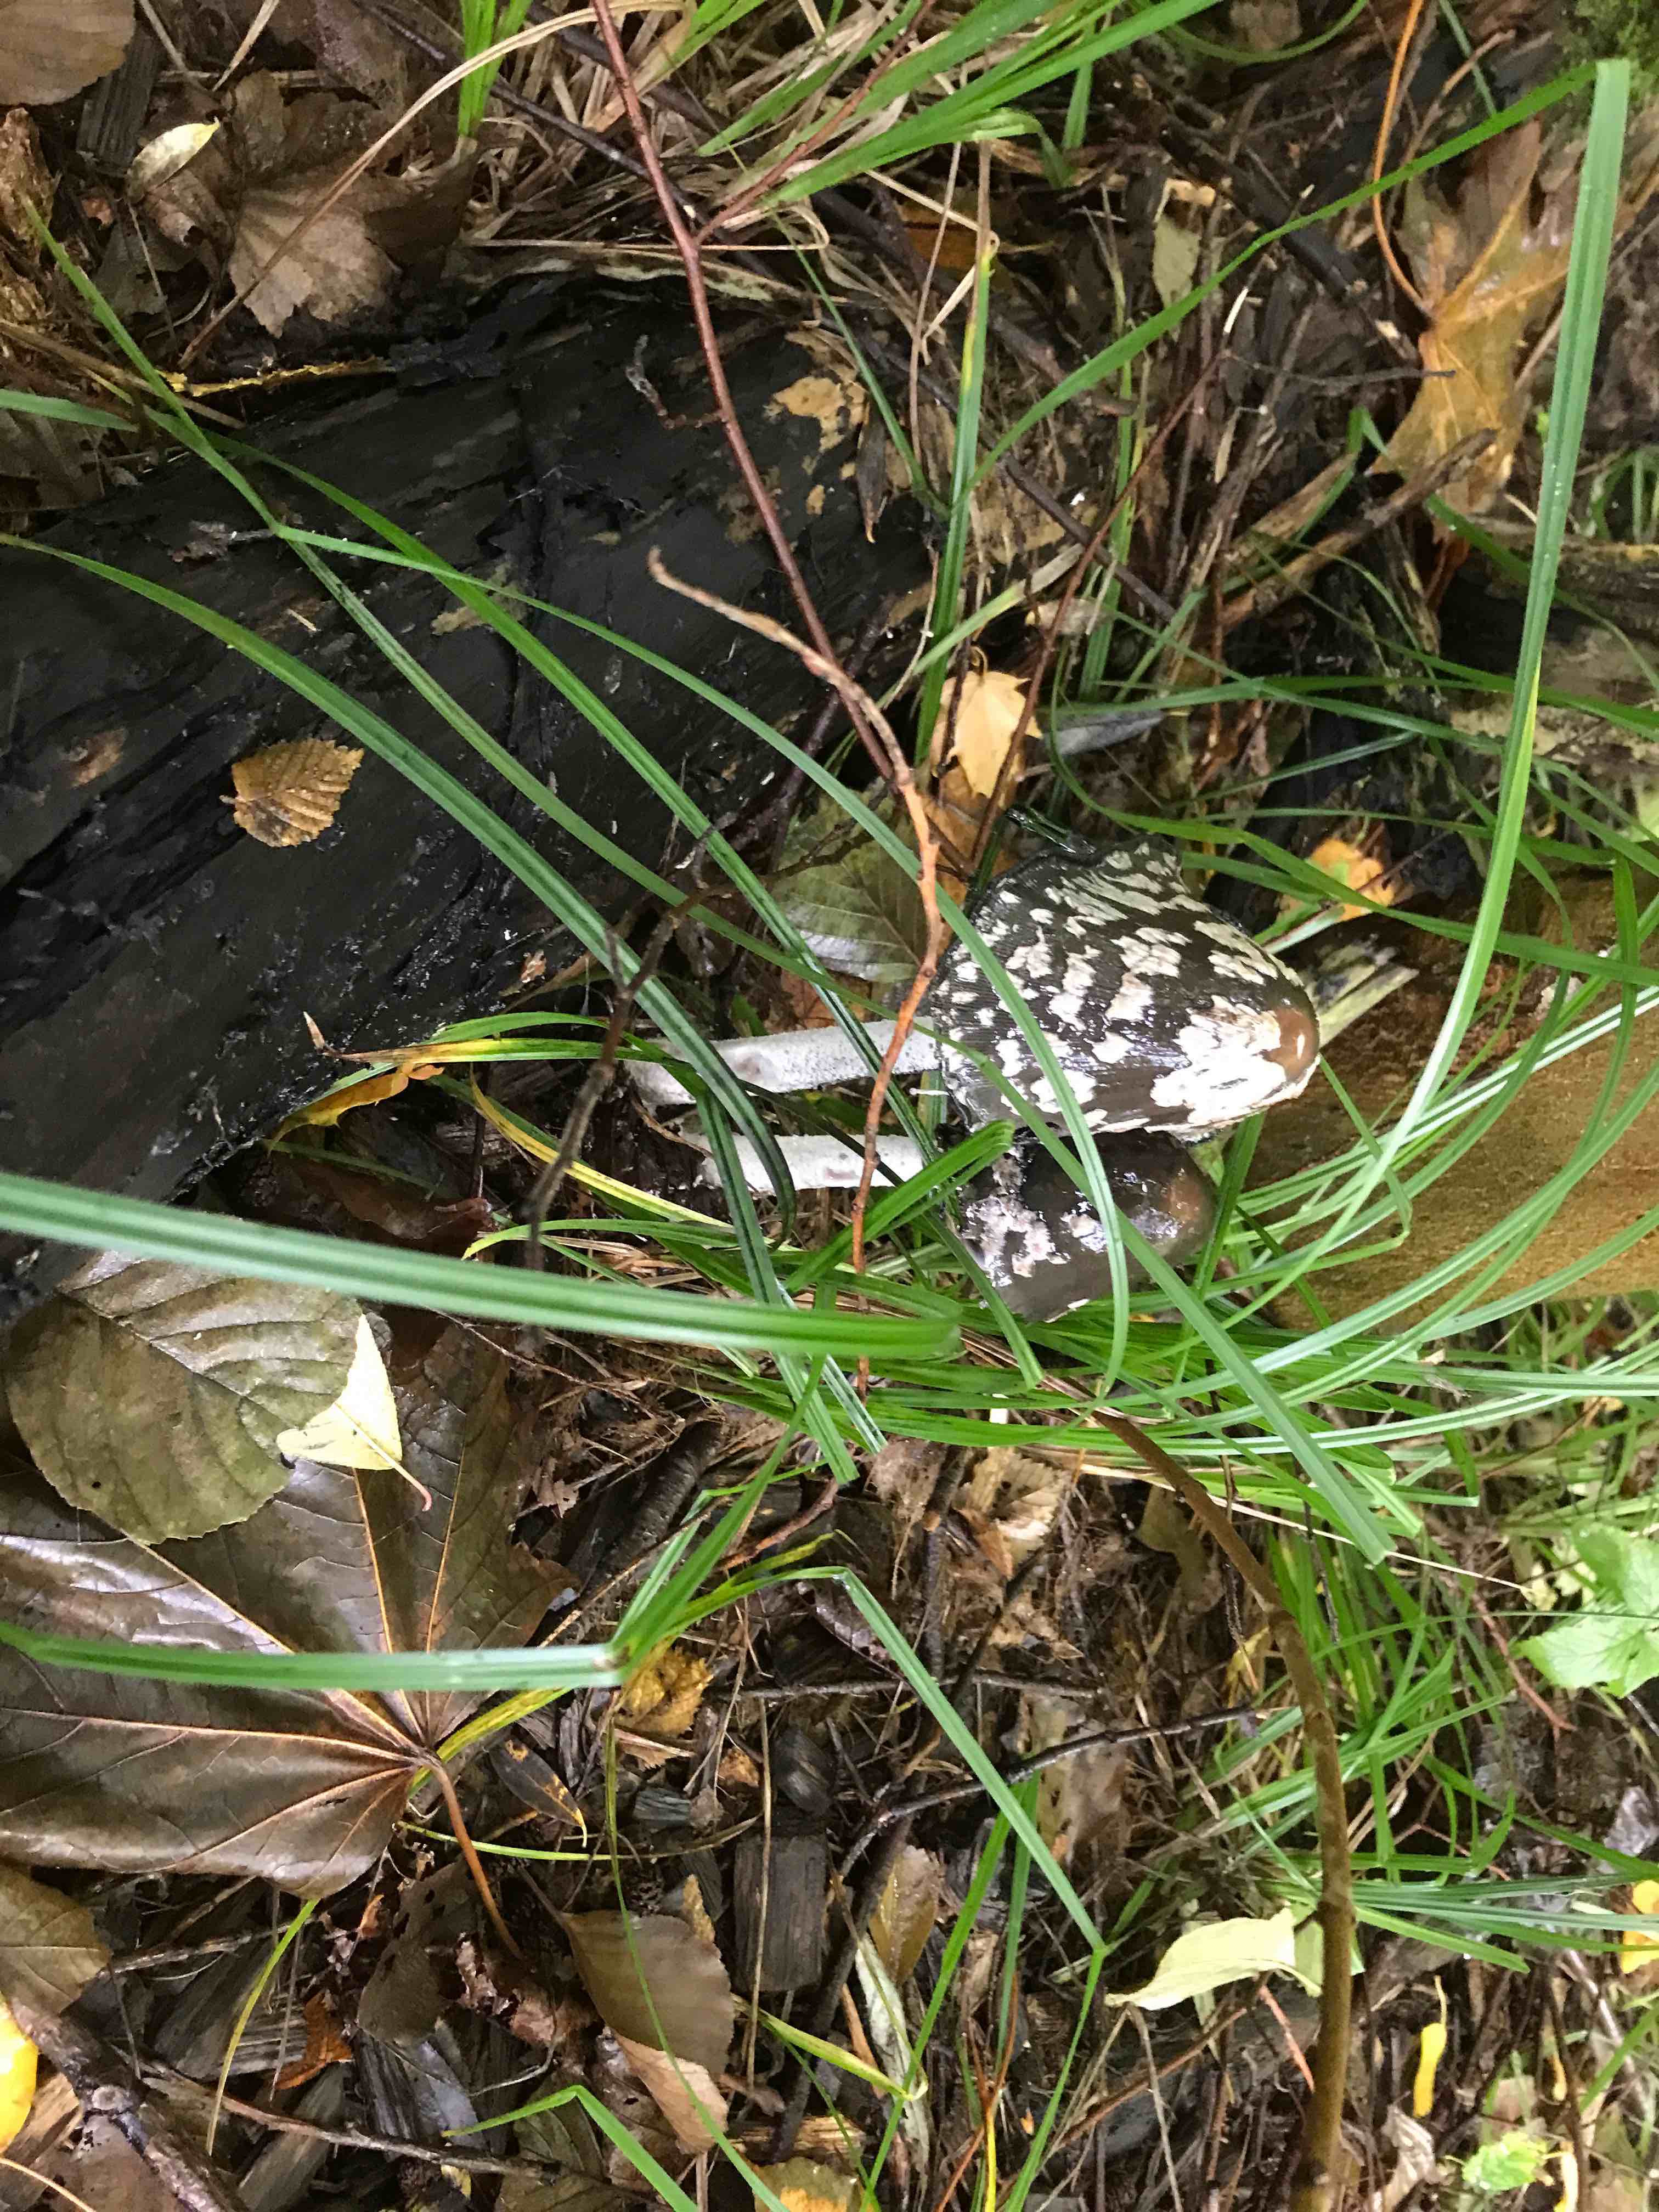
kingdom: Fungi
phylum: Basidiomycota
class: Agaricomycetes
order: Agaricales
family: Psathyrellaceae
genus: Coprinopsis
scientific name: Coprinopsis picacea
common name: skade-blækhat
